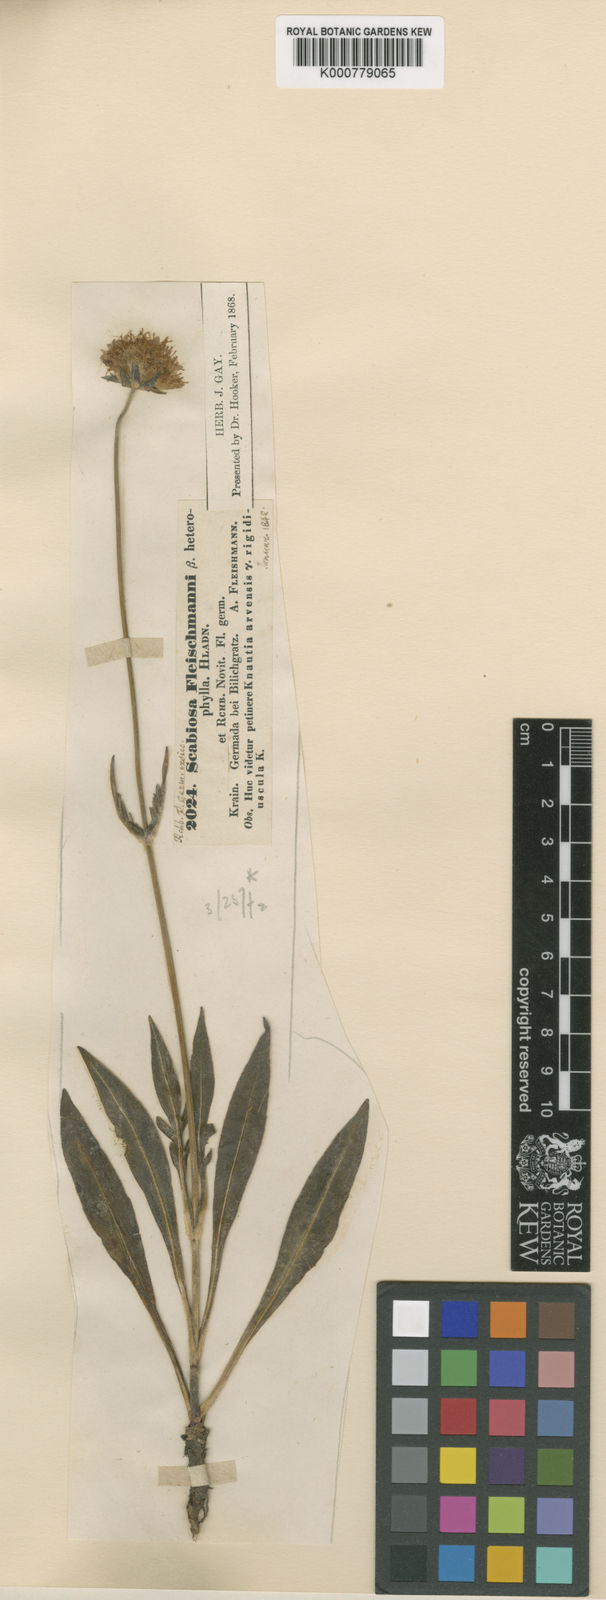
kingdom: Plantae
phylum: Tracheophyta
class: Magnoliopsida
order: Dipsacales
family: Caprifoliaceae
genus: Knautia
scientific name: Knautia fleischmannii
